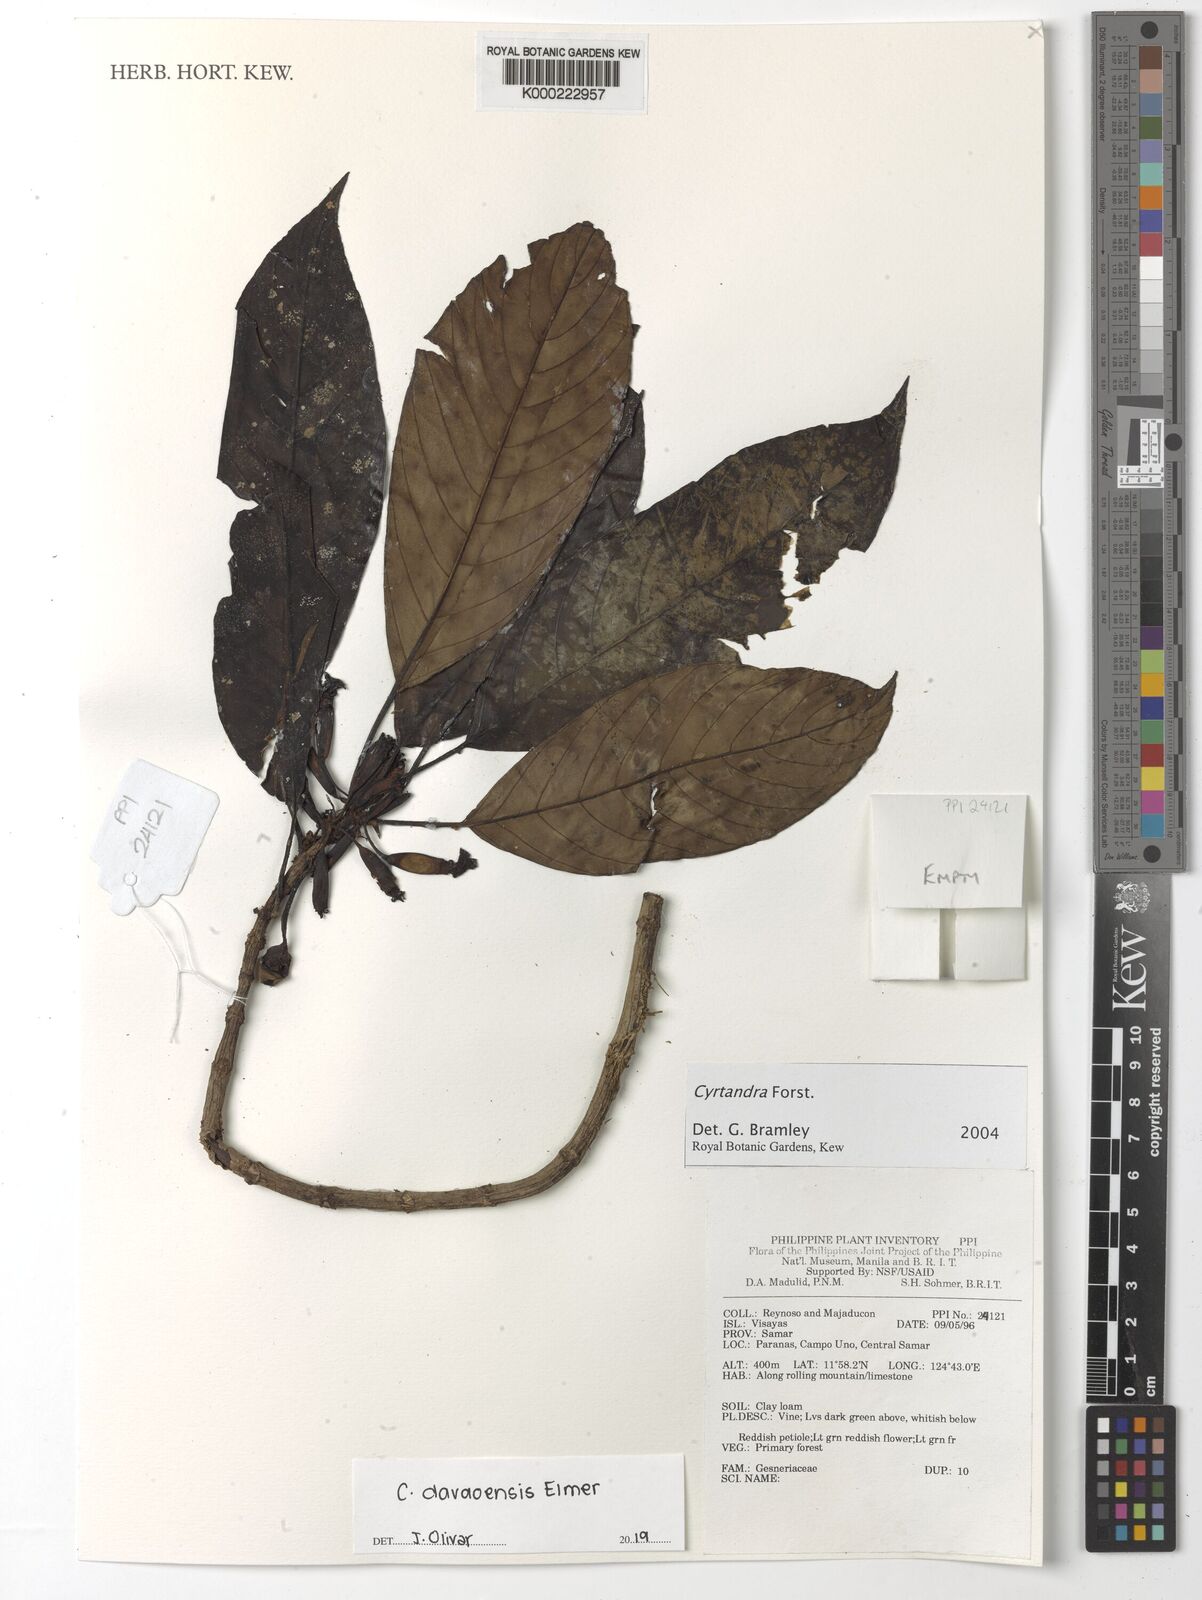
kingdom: Plantae
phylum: Tracheophyta
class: Magnoliopsida
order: Lamiales
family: Gesneriaceae
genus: Cyrtandra
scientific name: Cyrtandra
